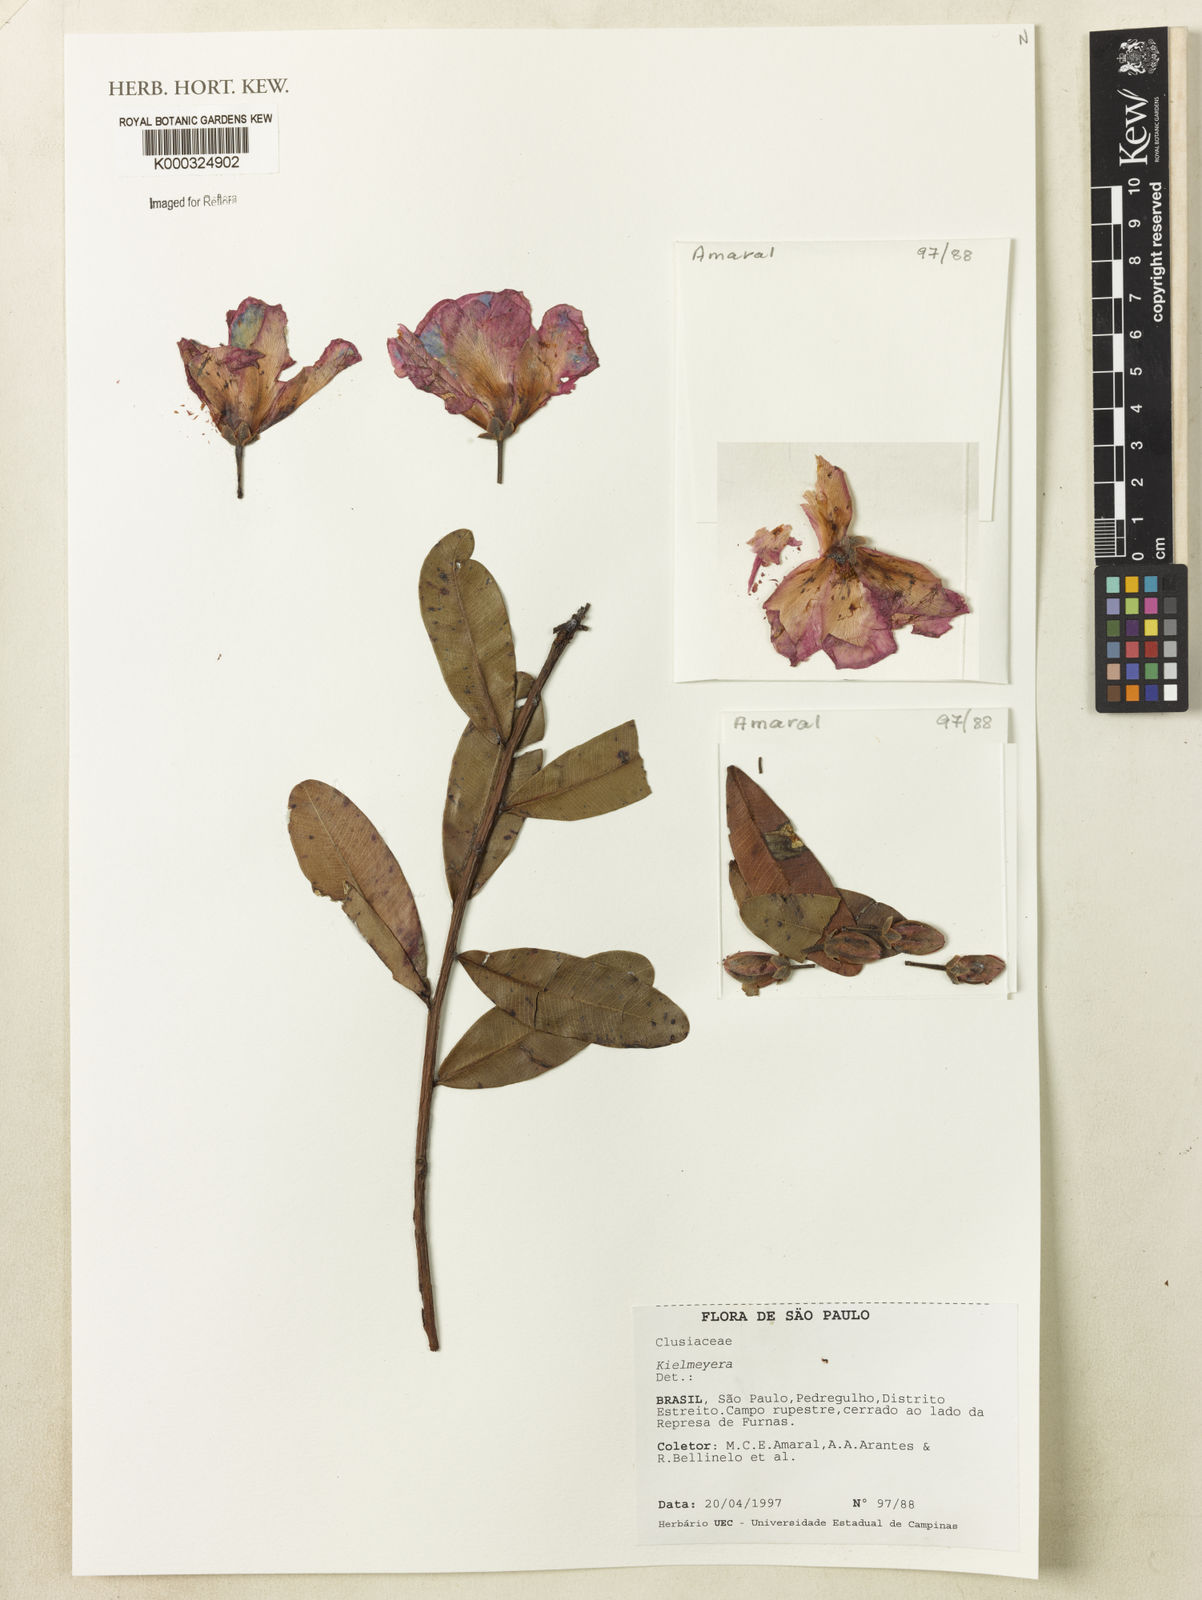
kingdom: Plantae
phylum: Tracheophyta
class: Magnoliopsida
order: Malpighiales
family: Calophyllaceae
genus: Kielmeyera
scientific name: Kielmeyera
